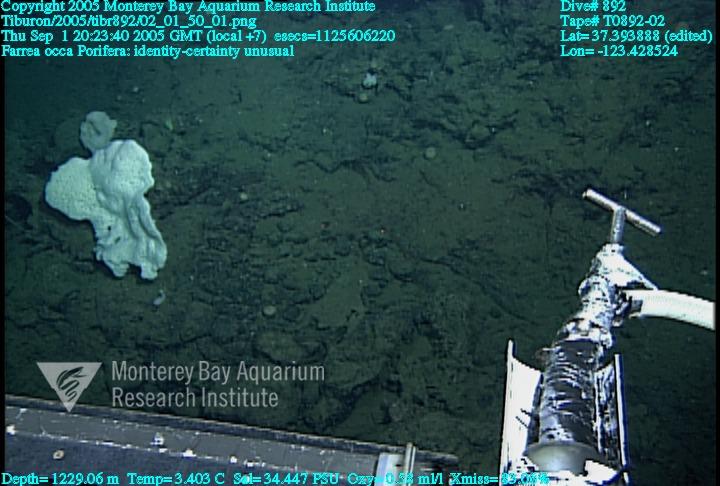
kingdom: Animalia
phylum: Porifera
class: Hexactinellida
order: Sceptrulophora
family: Farreidae
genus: Farrea
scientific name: Farrea occa
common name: Reversed glass sponge
